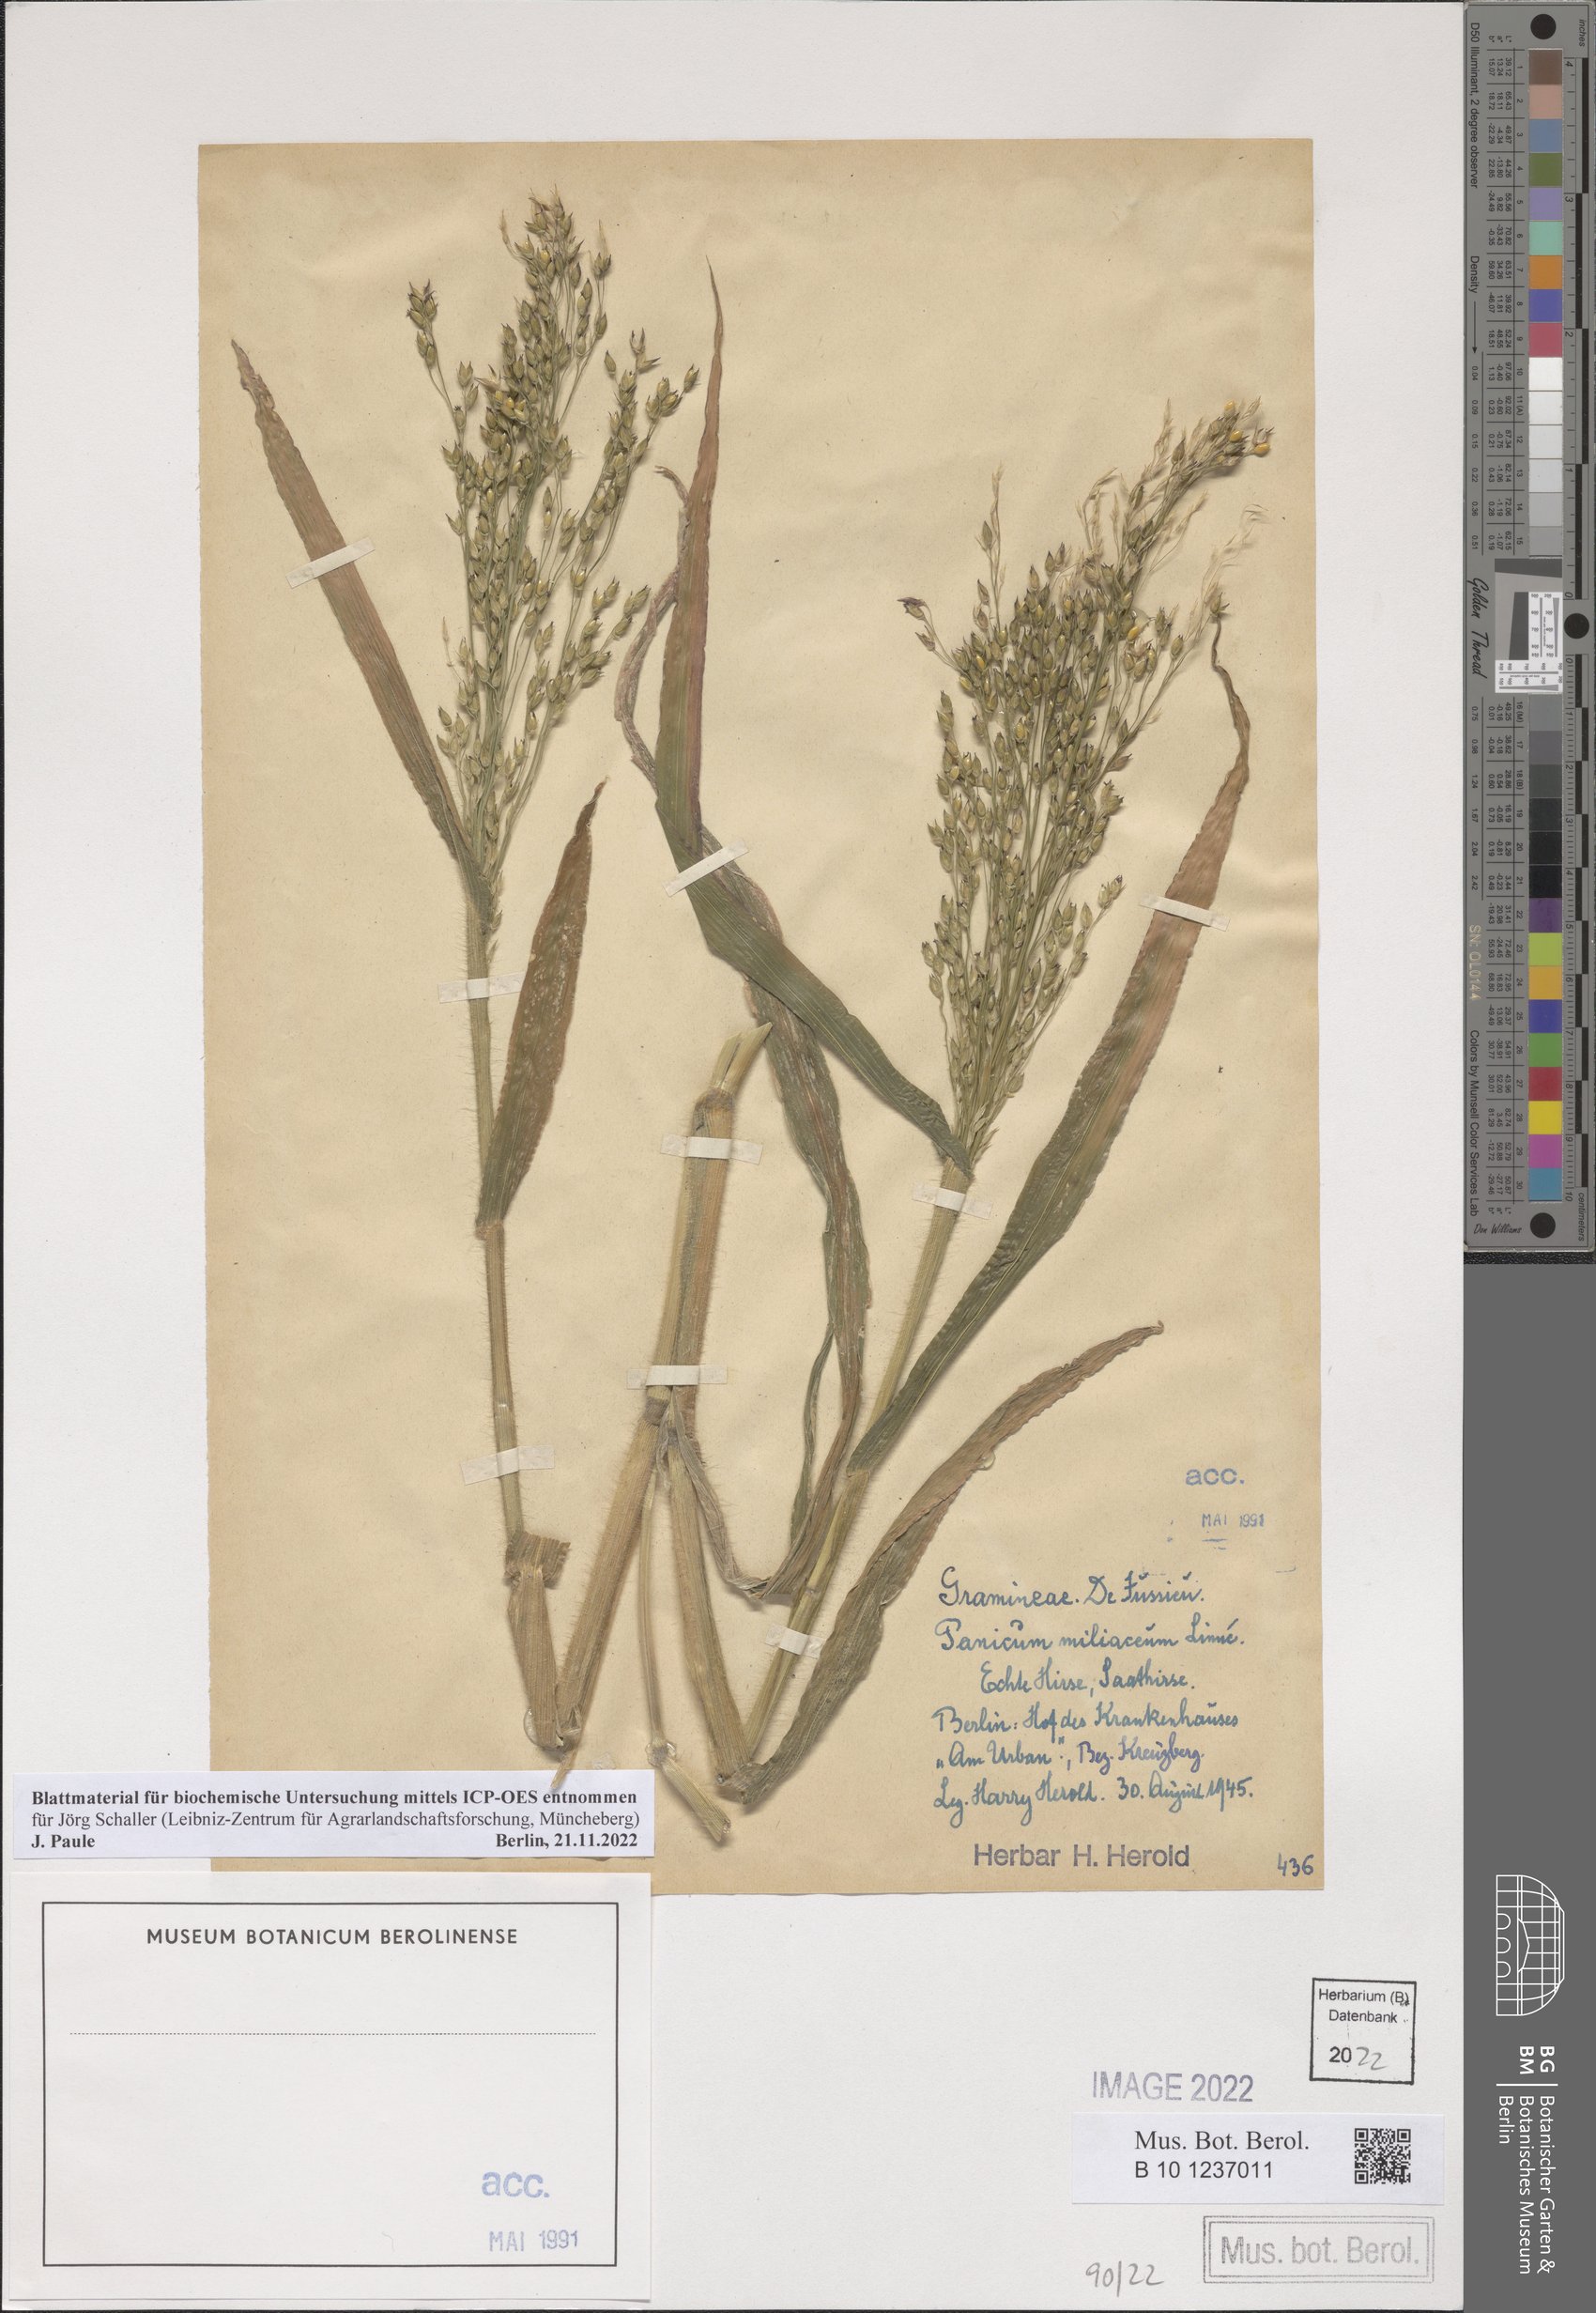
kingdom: Plantae
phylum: Tracheophyta
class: Liliopsida
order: Poales
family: Poaceae
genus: Panicum
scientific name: Panicum miliaceum
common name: Common millet
